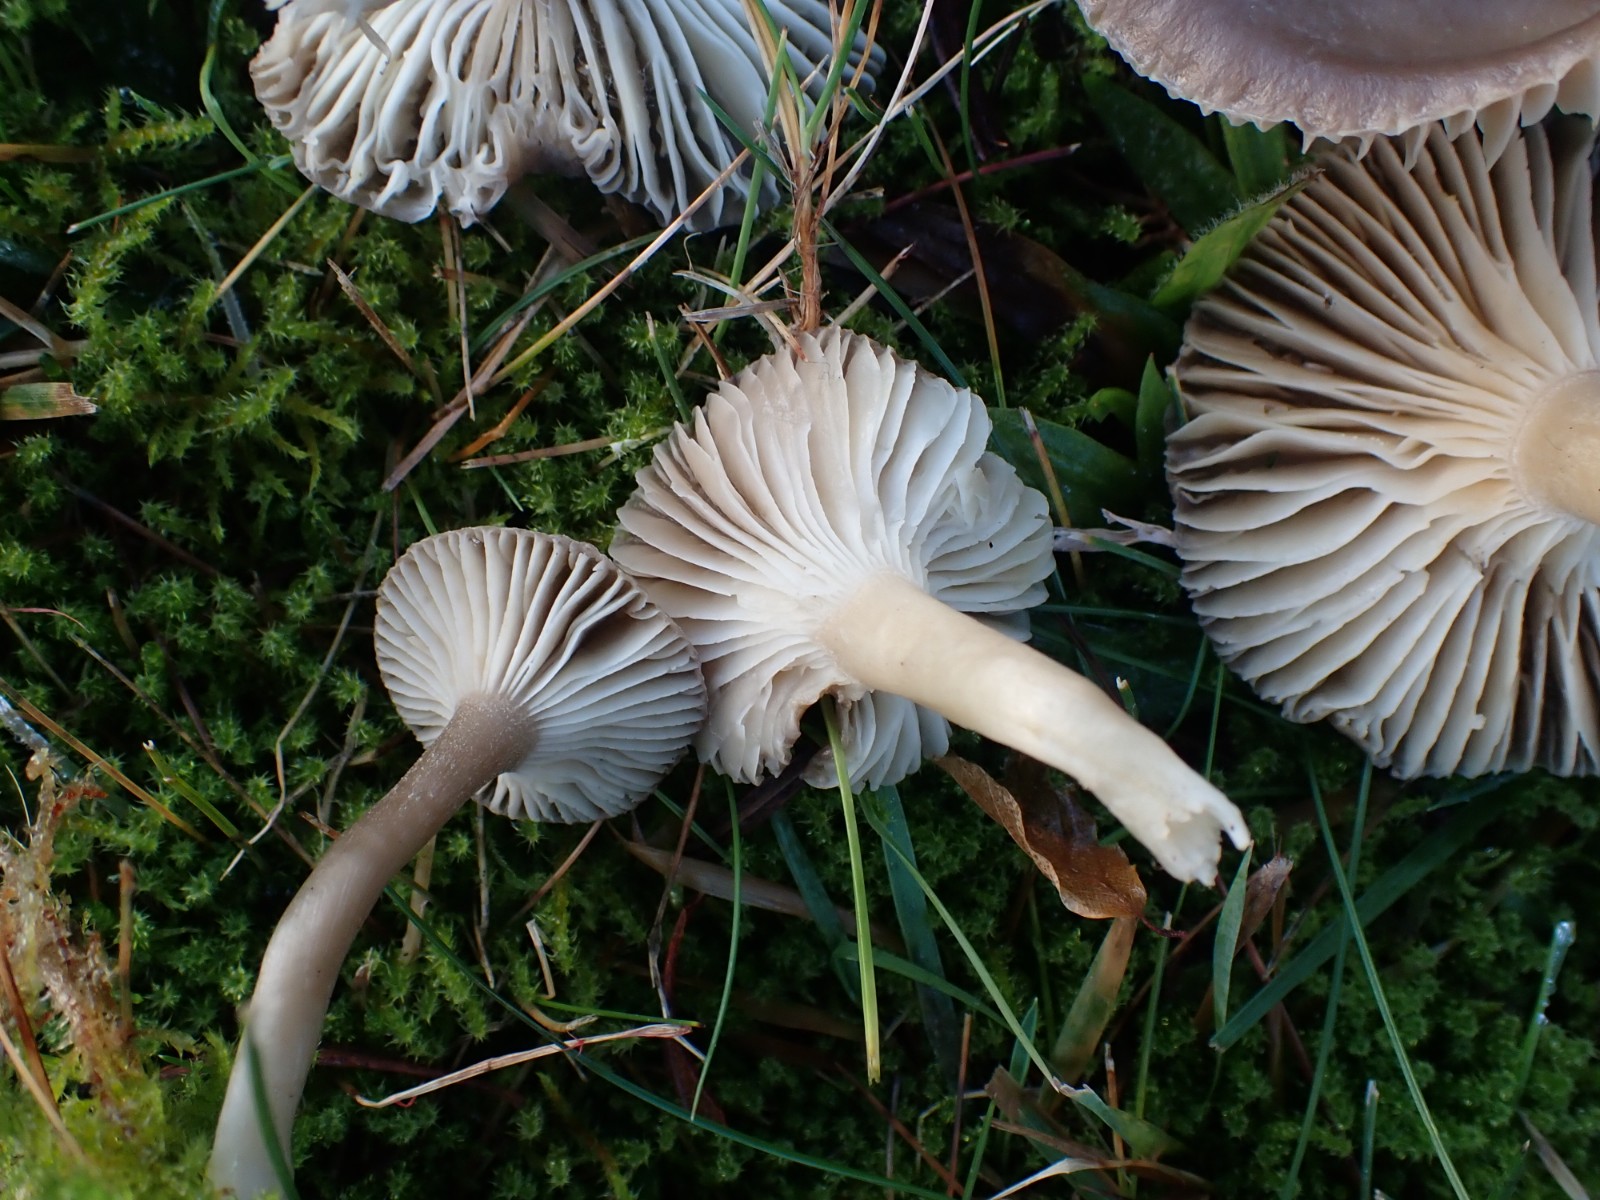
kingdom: Fungi
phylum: Basidiomycota
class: Agaricomycetes
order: Agaricales
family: Hygrophoraceae
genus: Gliophorus
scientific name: Gliophorus irrigatus
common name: slimet vokshat
